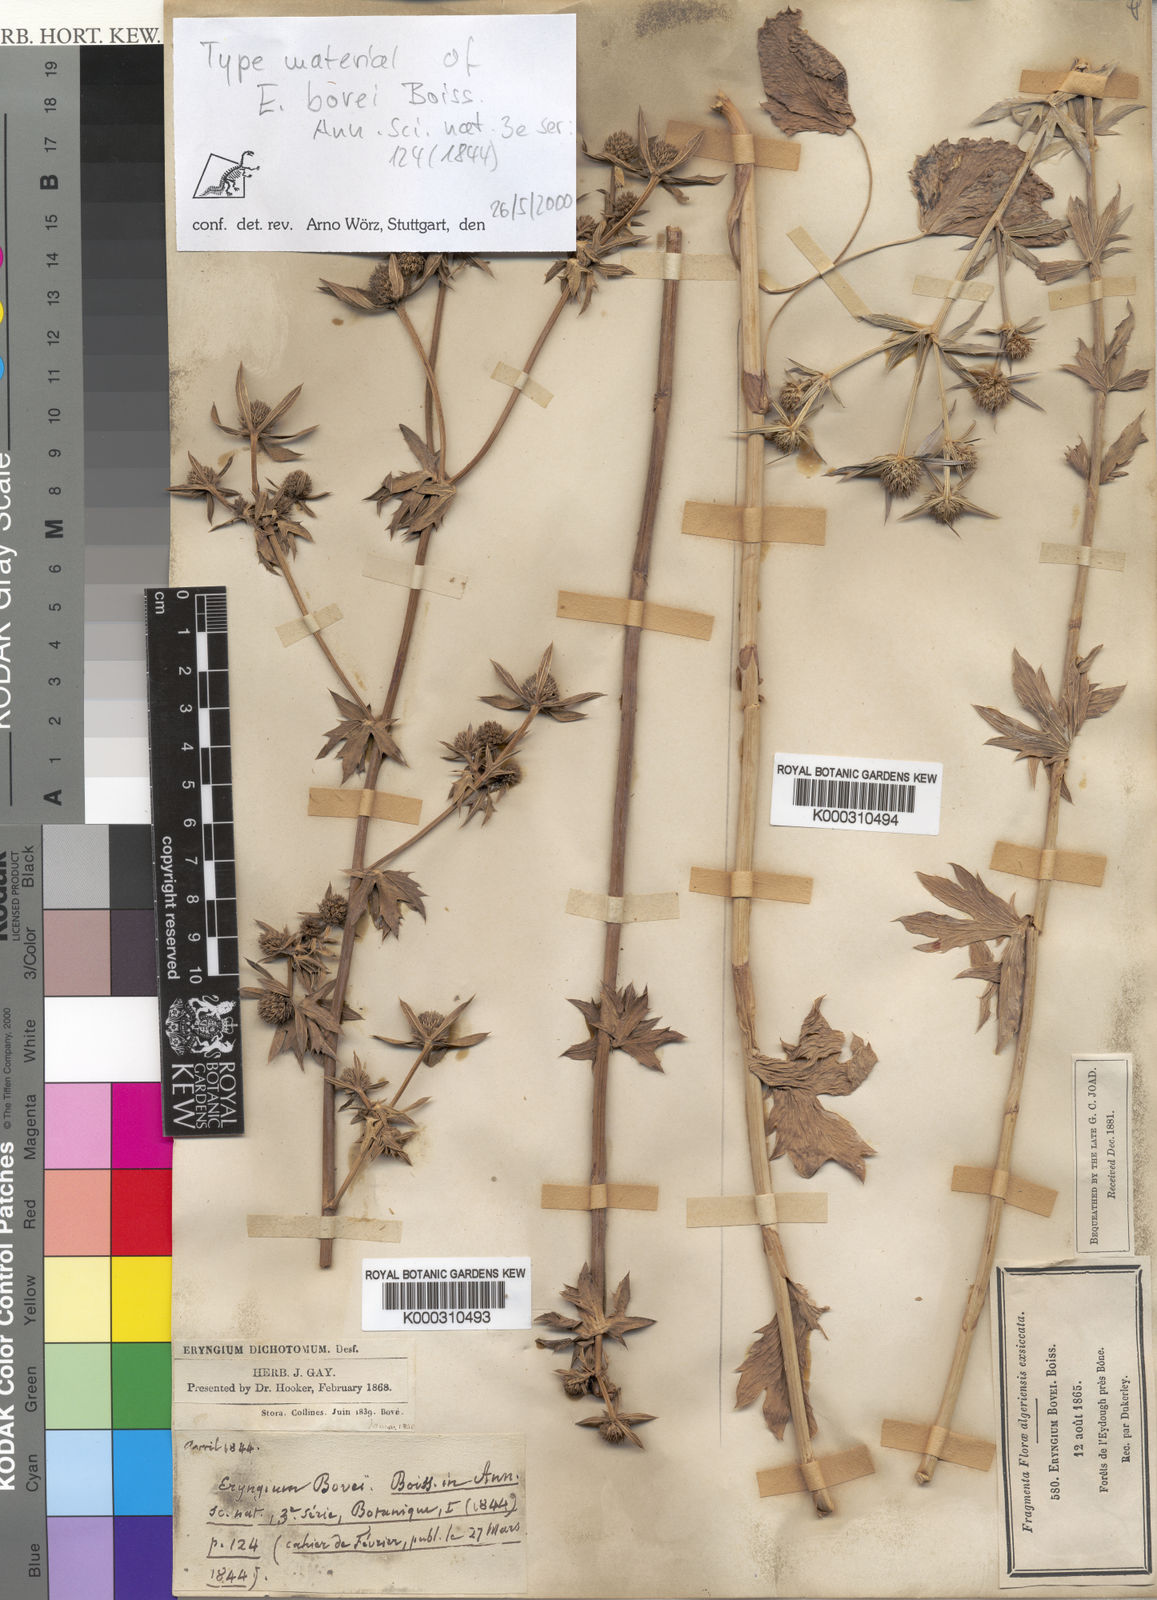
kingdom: Plantae
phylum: Tracheophyta
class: Magnoliopsida
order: Apiales
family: Apiaceae
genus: Eryngium
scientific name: Eryngium tricuspidatum
